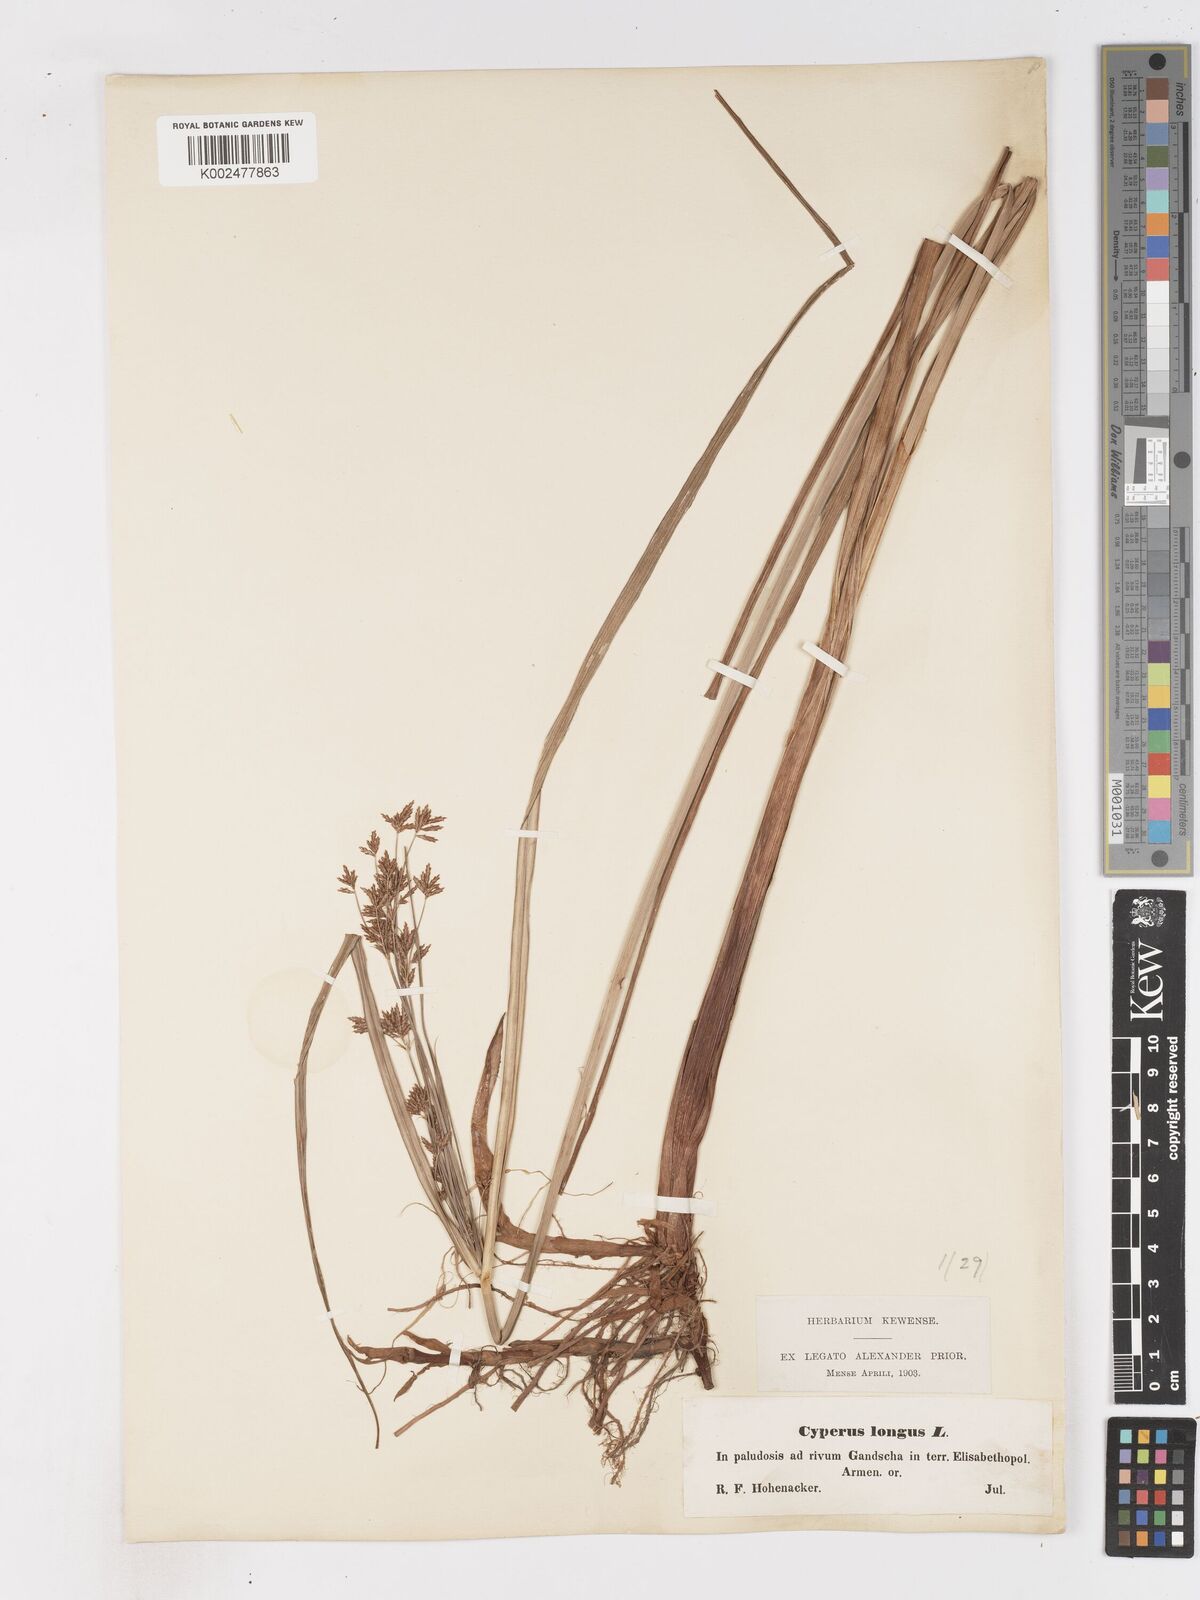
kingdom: Plantae
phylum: Tracheophyta
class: Liliopsida
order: Poales
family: Cyperaceae
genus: Cyperus
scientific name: Cyperus longus
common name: Galingale
